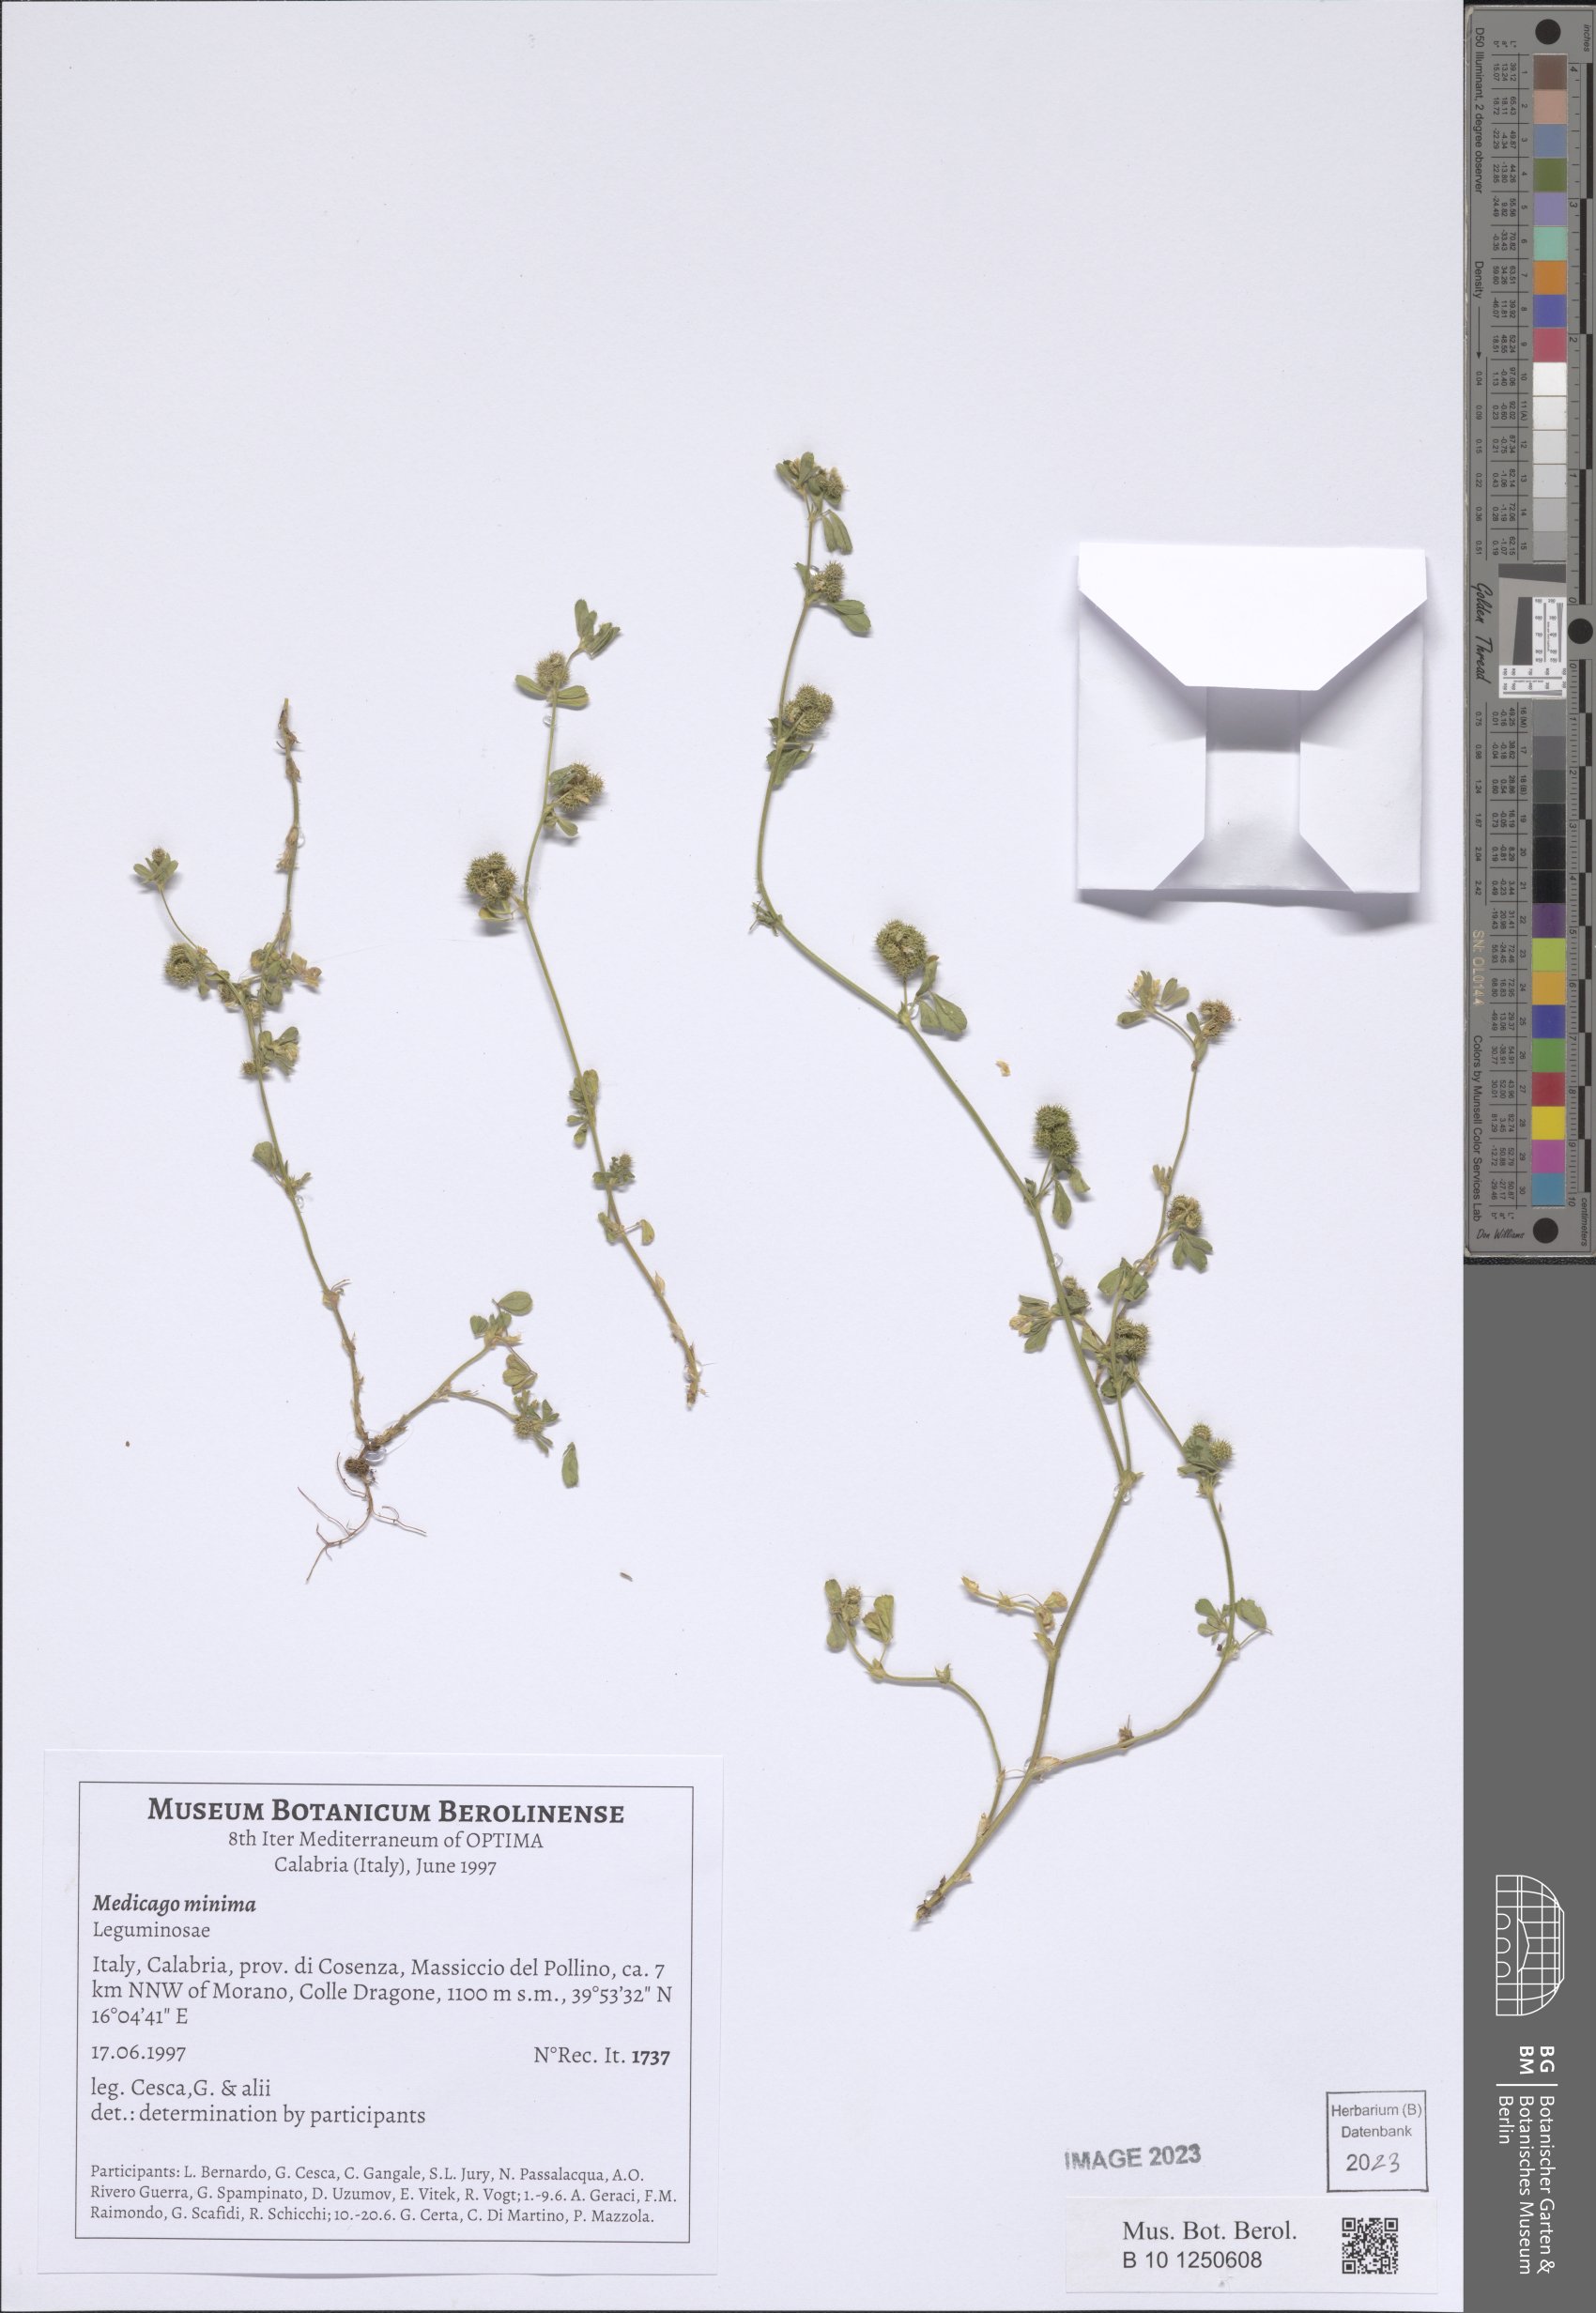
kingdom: Plantae
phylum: Tracheophyta
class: Magnoliopsida
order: Fabales
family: Fabaceae
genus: Medicago
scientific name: Medicago minima
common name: Little bur-clover
